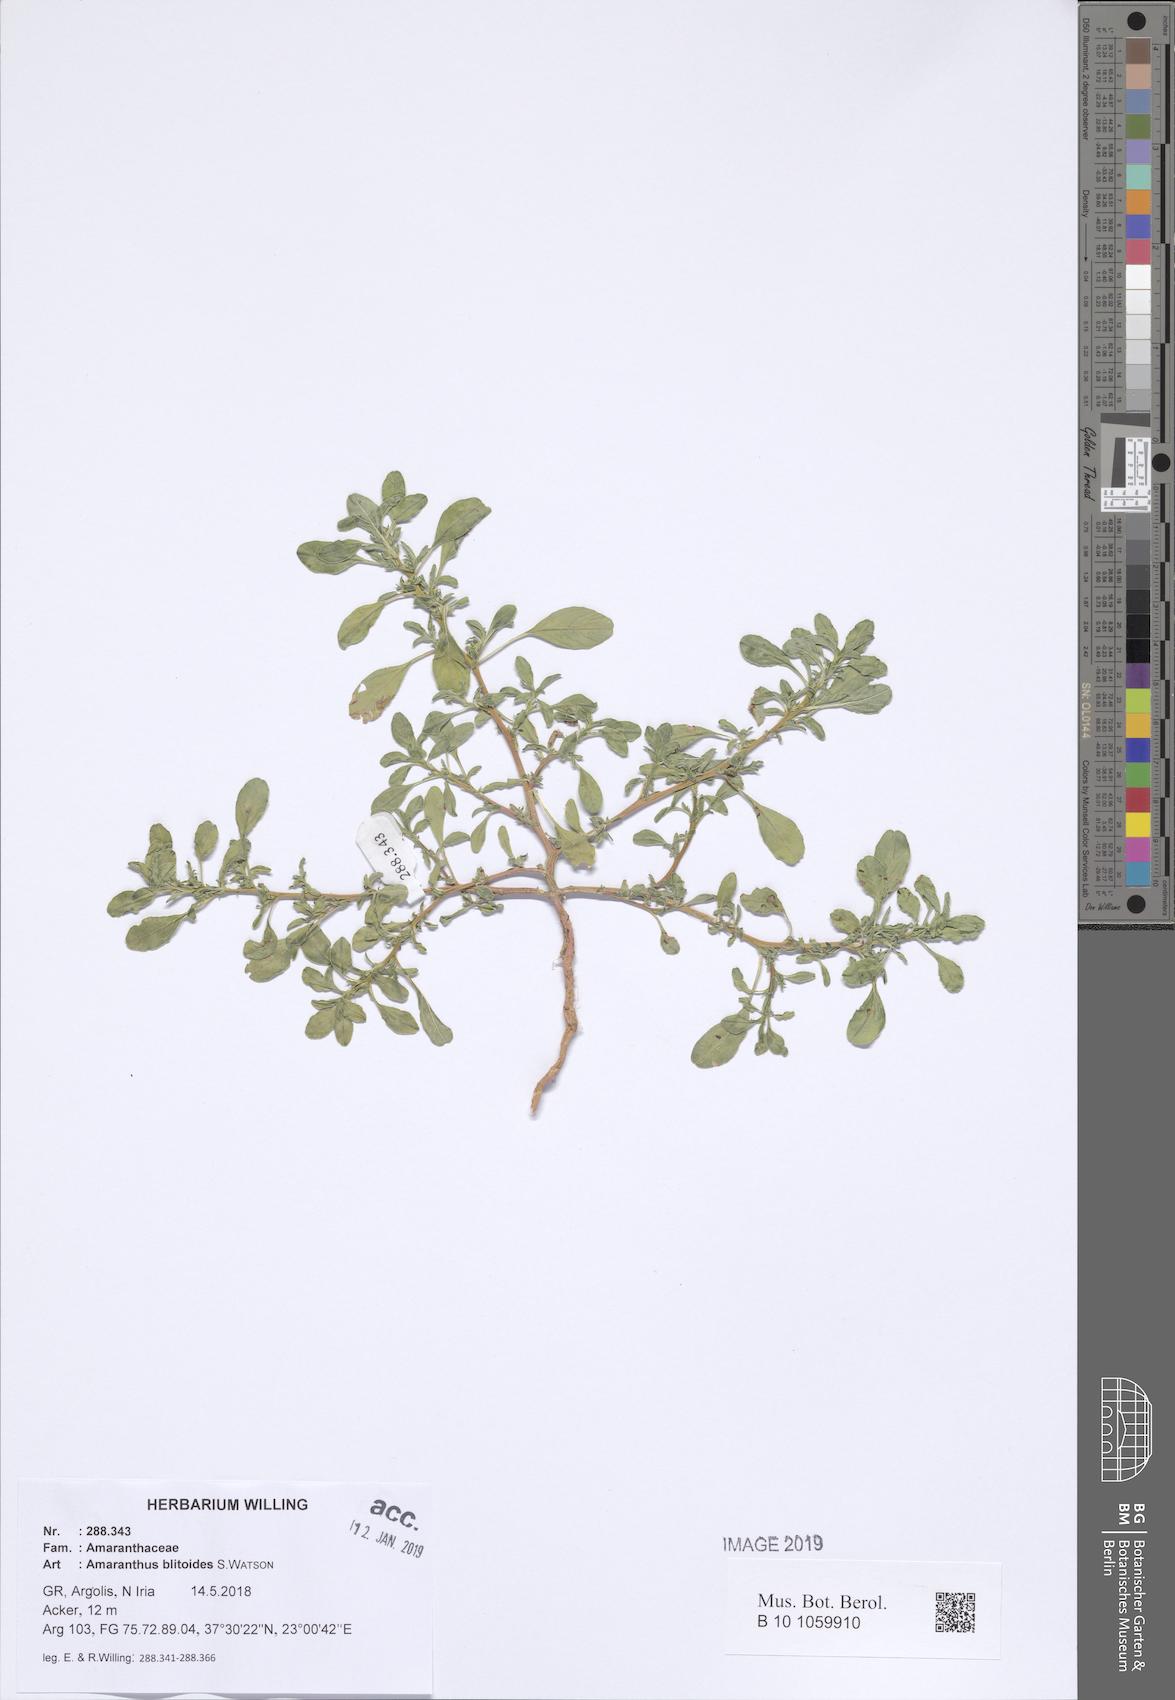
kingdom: Plantae
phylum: Tracheophyta
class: Magnoliopsida
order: Caryophyllales
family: Amaranthaceae
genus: Amaranthus
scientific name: Amaranthus blitoides
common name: Prostrate pigweed
